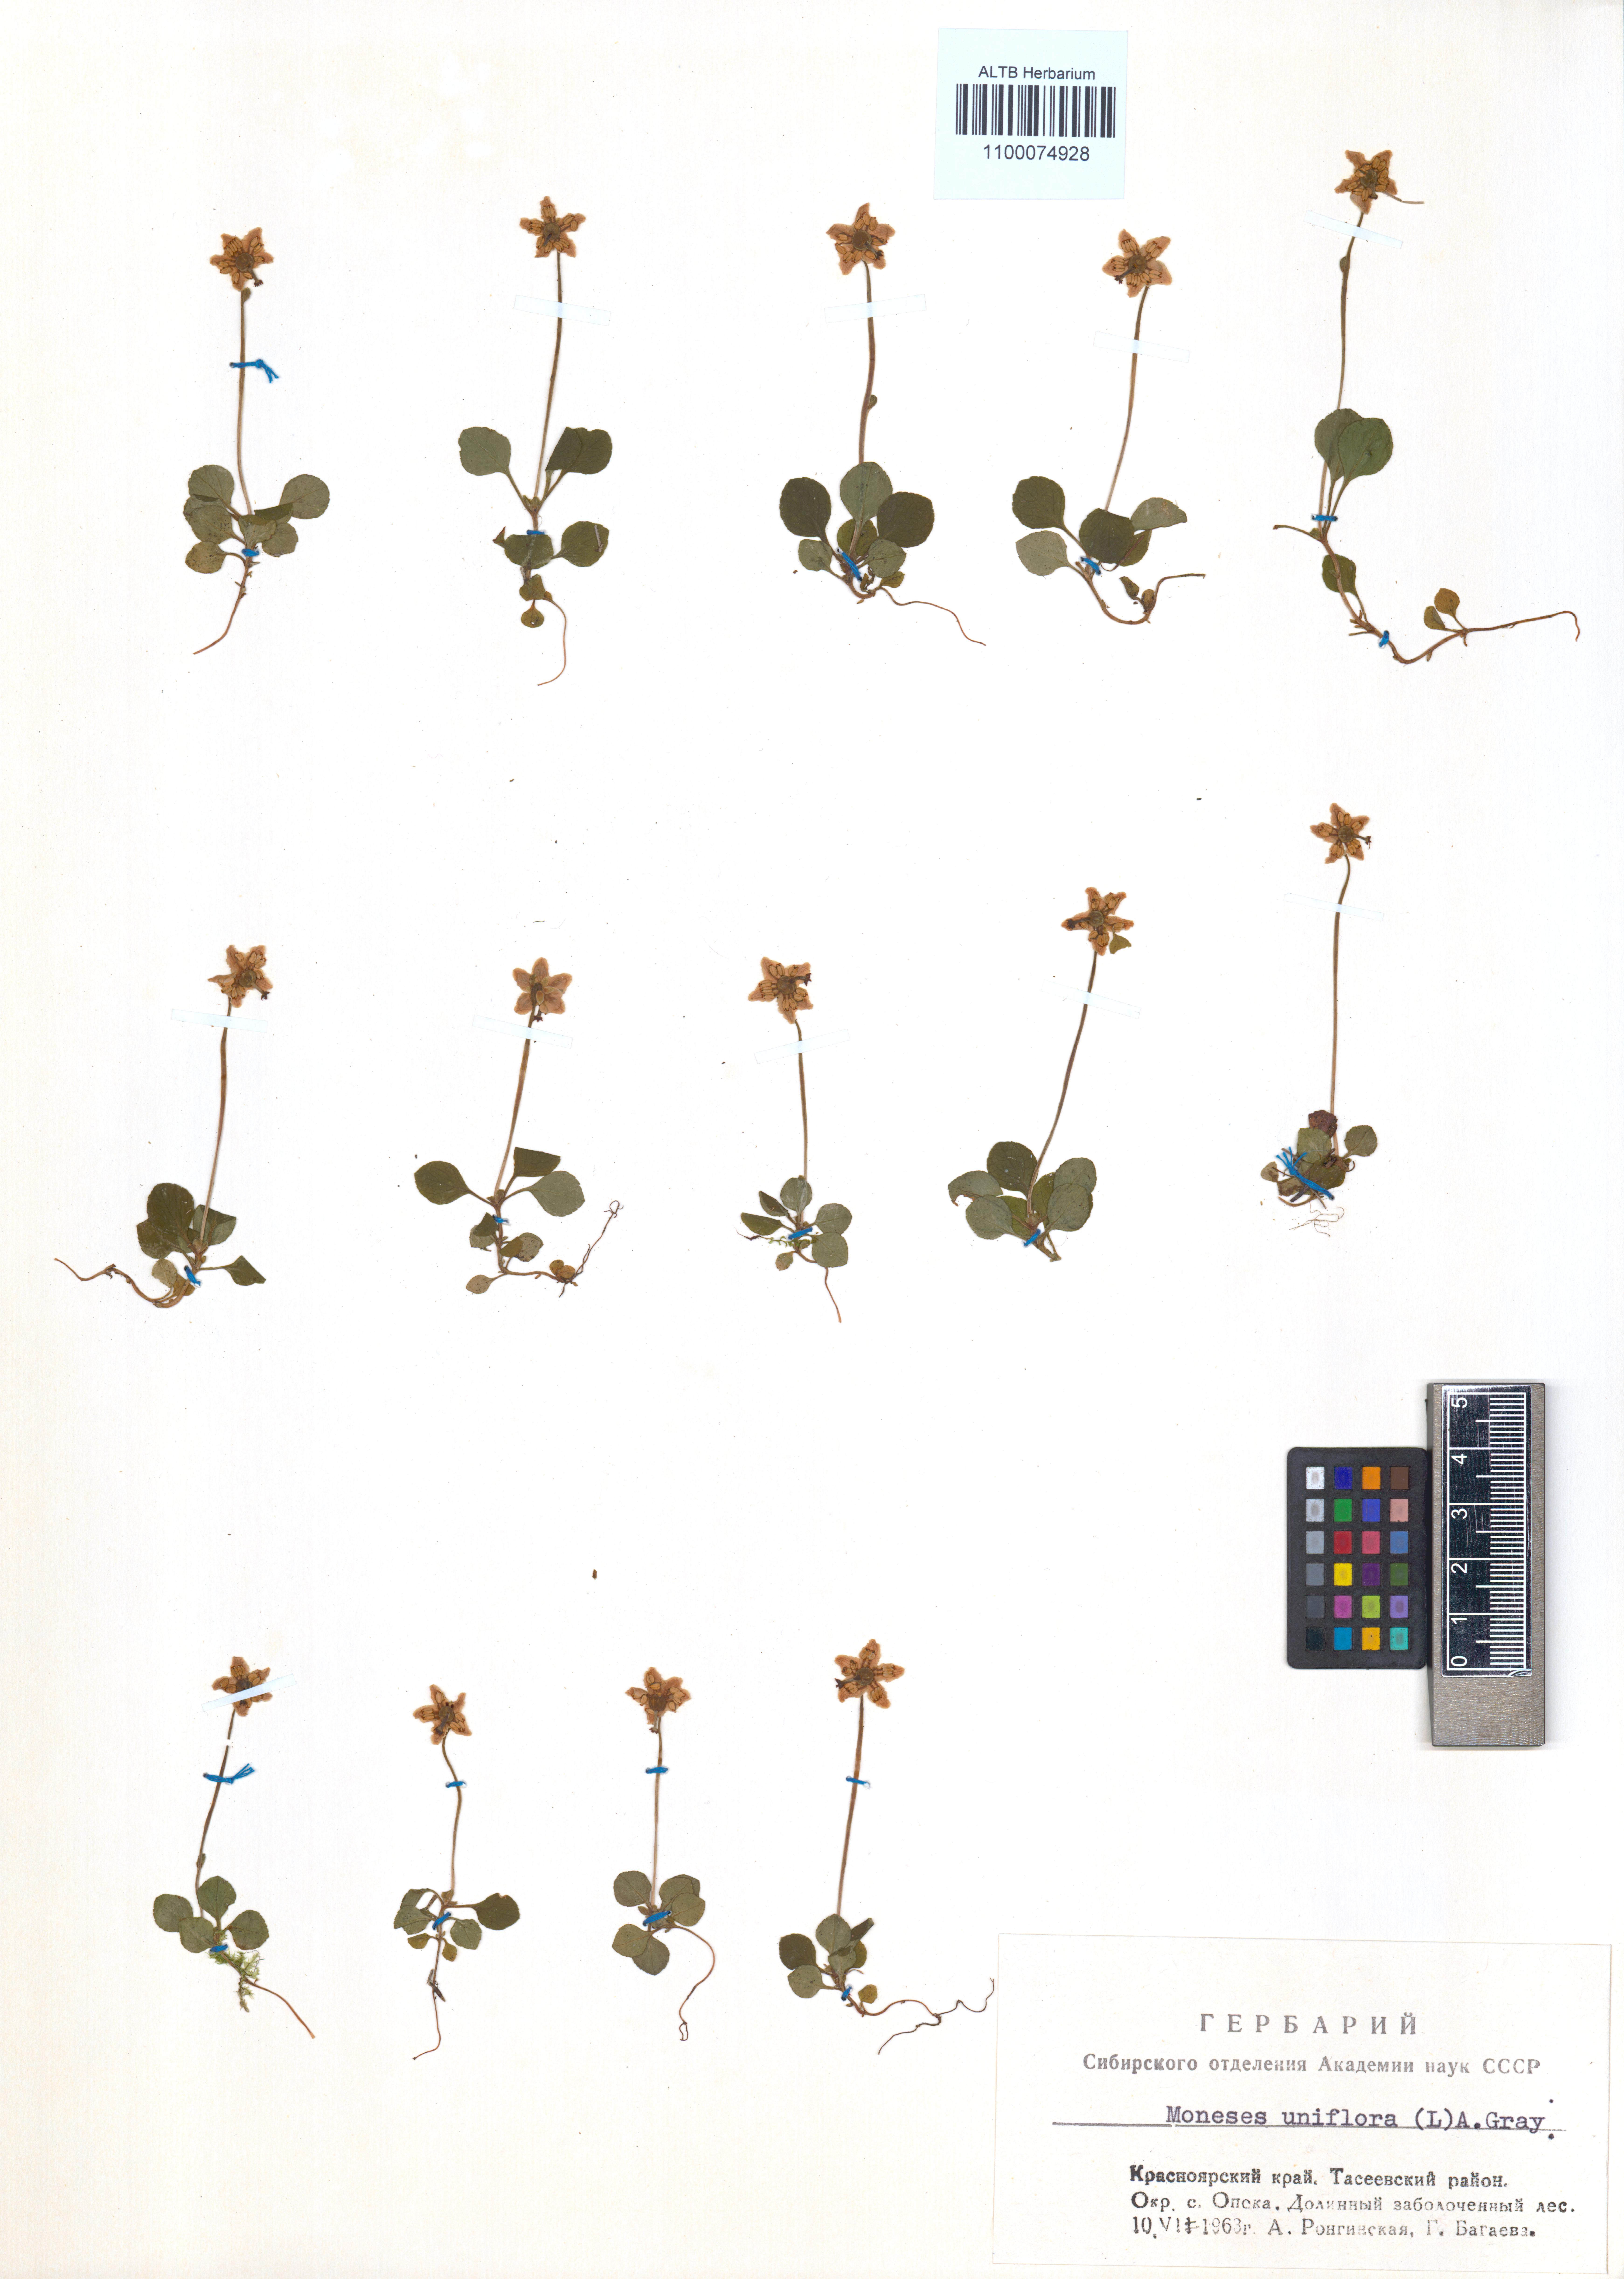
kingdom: Plantae
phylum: Tracheophyta
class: Magnoliopsida
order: Ericales
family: Ericaceae
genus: Moneses
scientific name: Moneses uniflora
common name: One-flowered wintergreen
